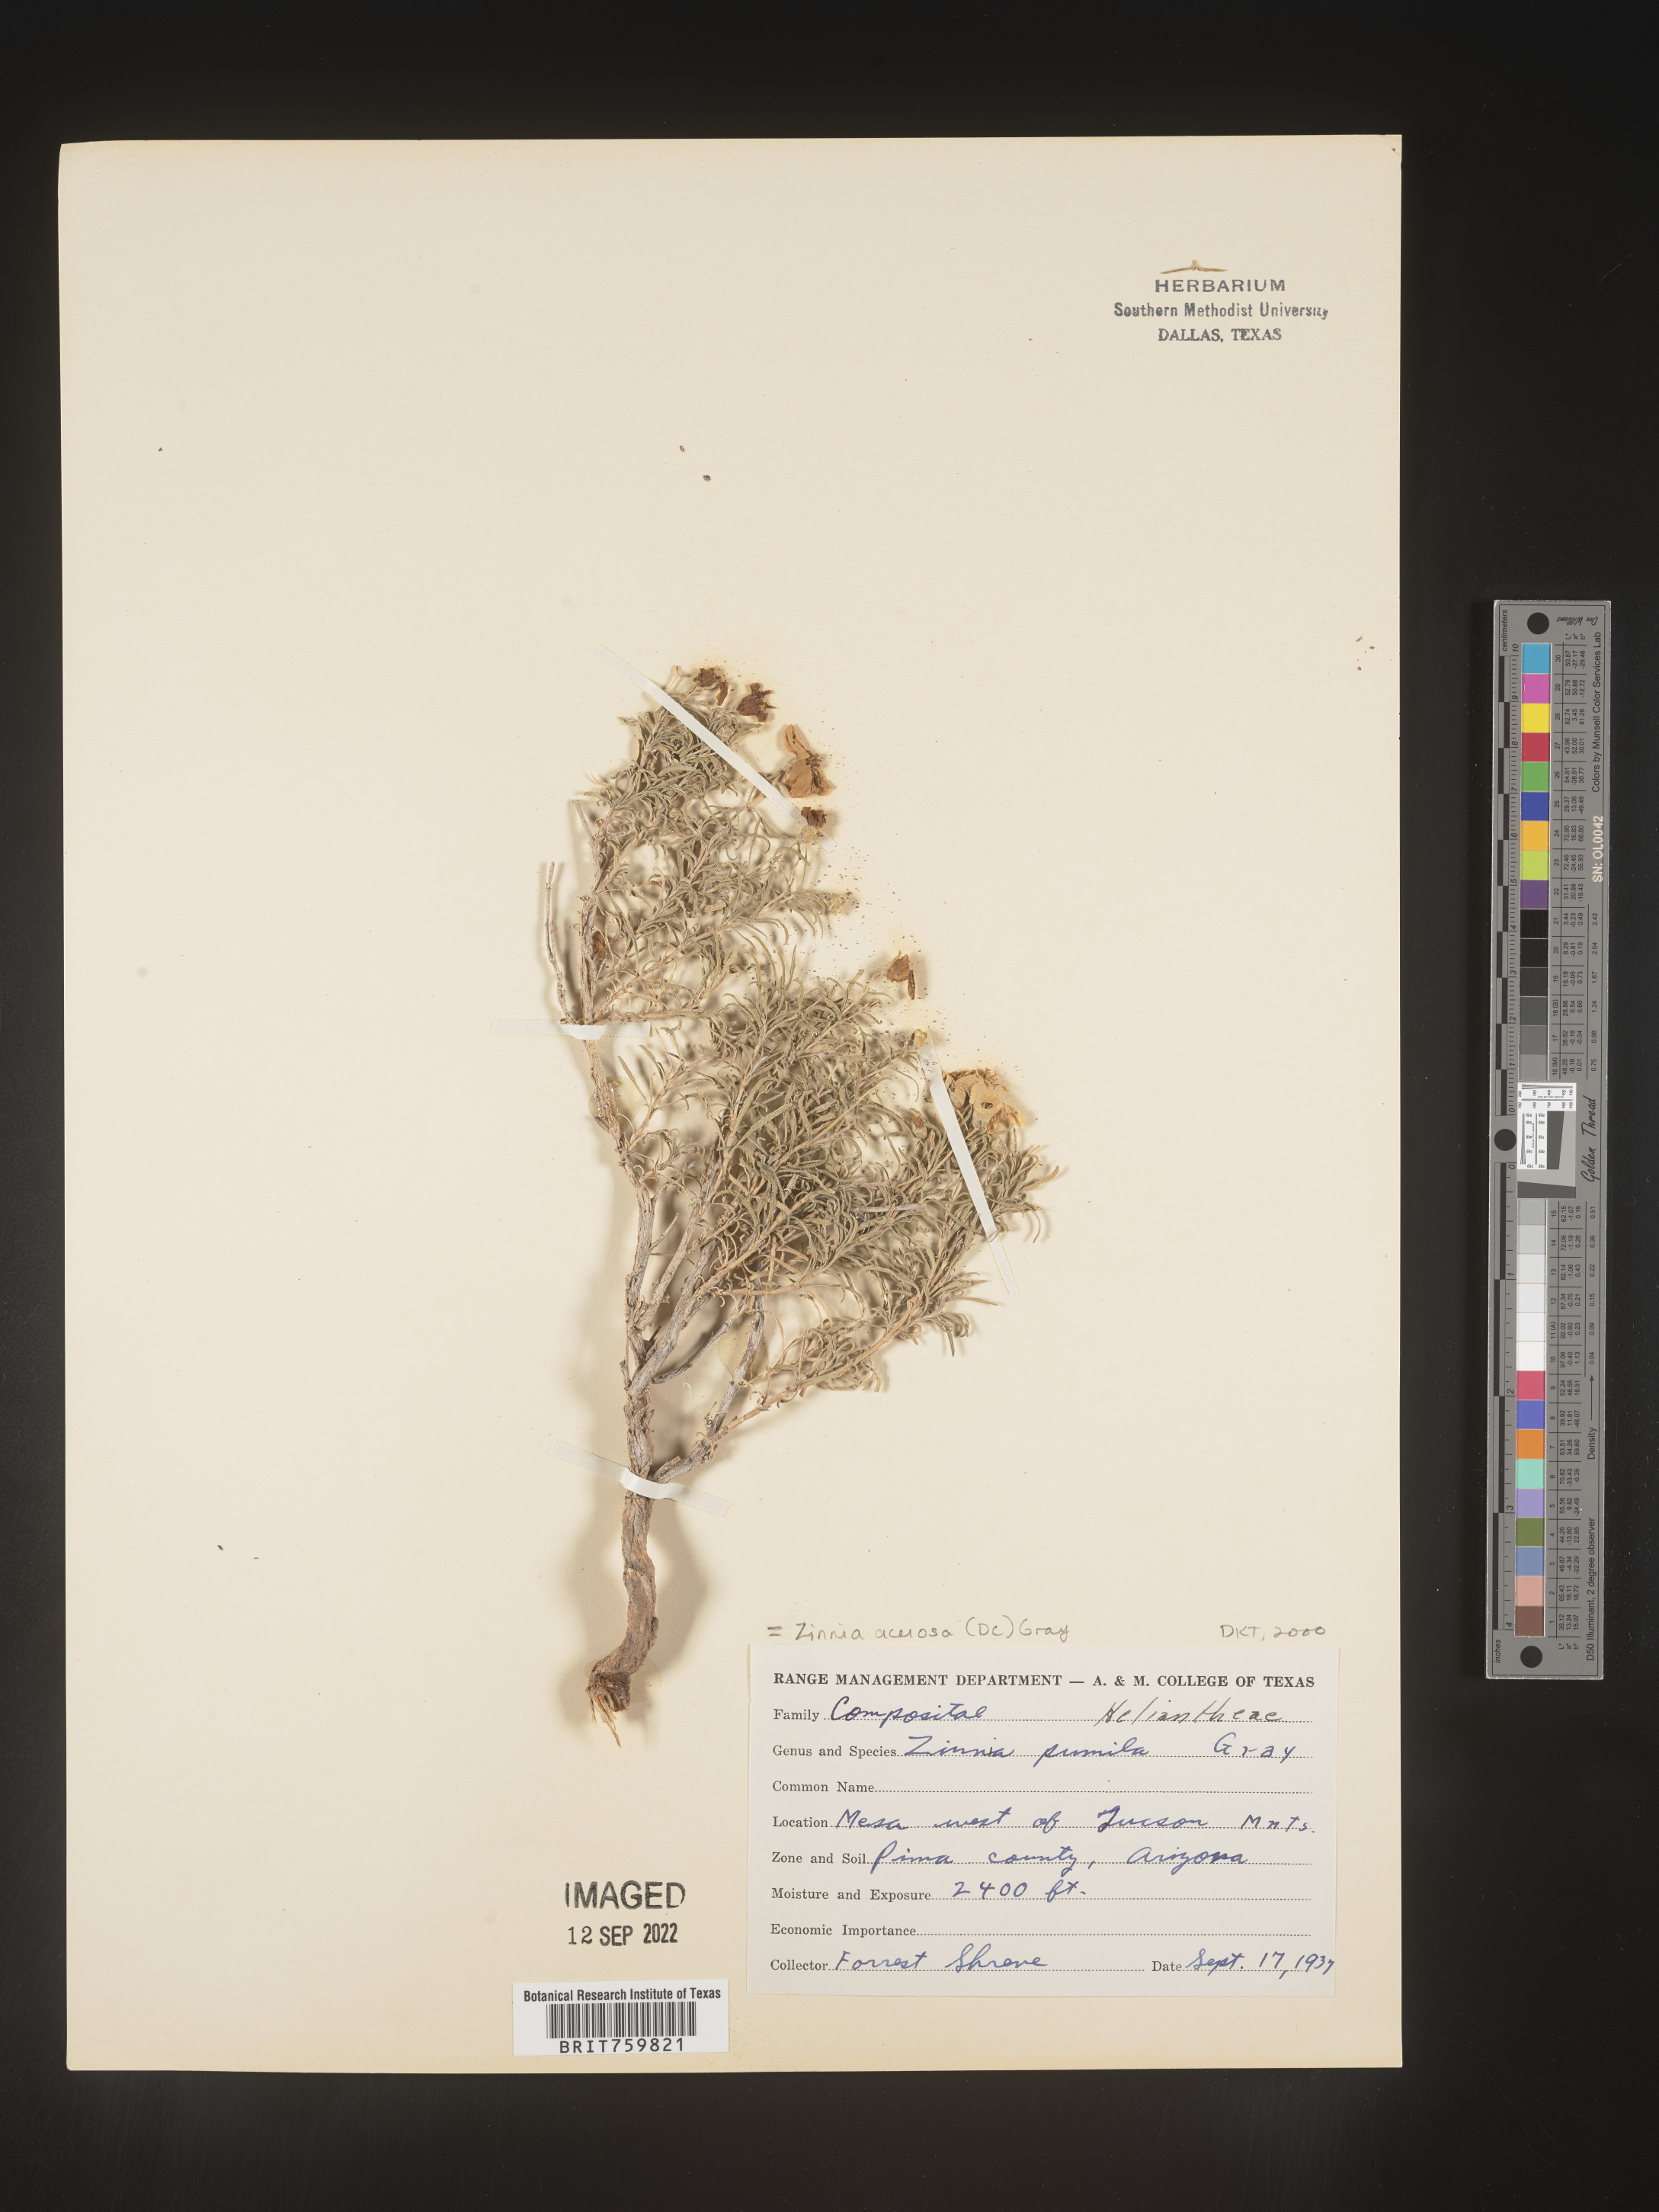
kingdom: Plantae
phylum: Tracheophyta
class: Magnoliopsida
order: Asterales
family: Asteraceae
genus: Zinnia
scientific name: Zinnia
